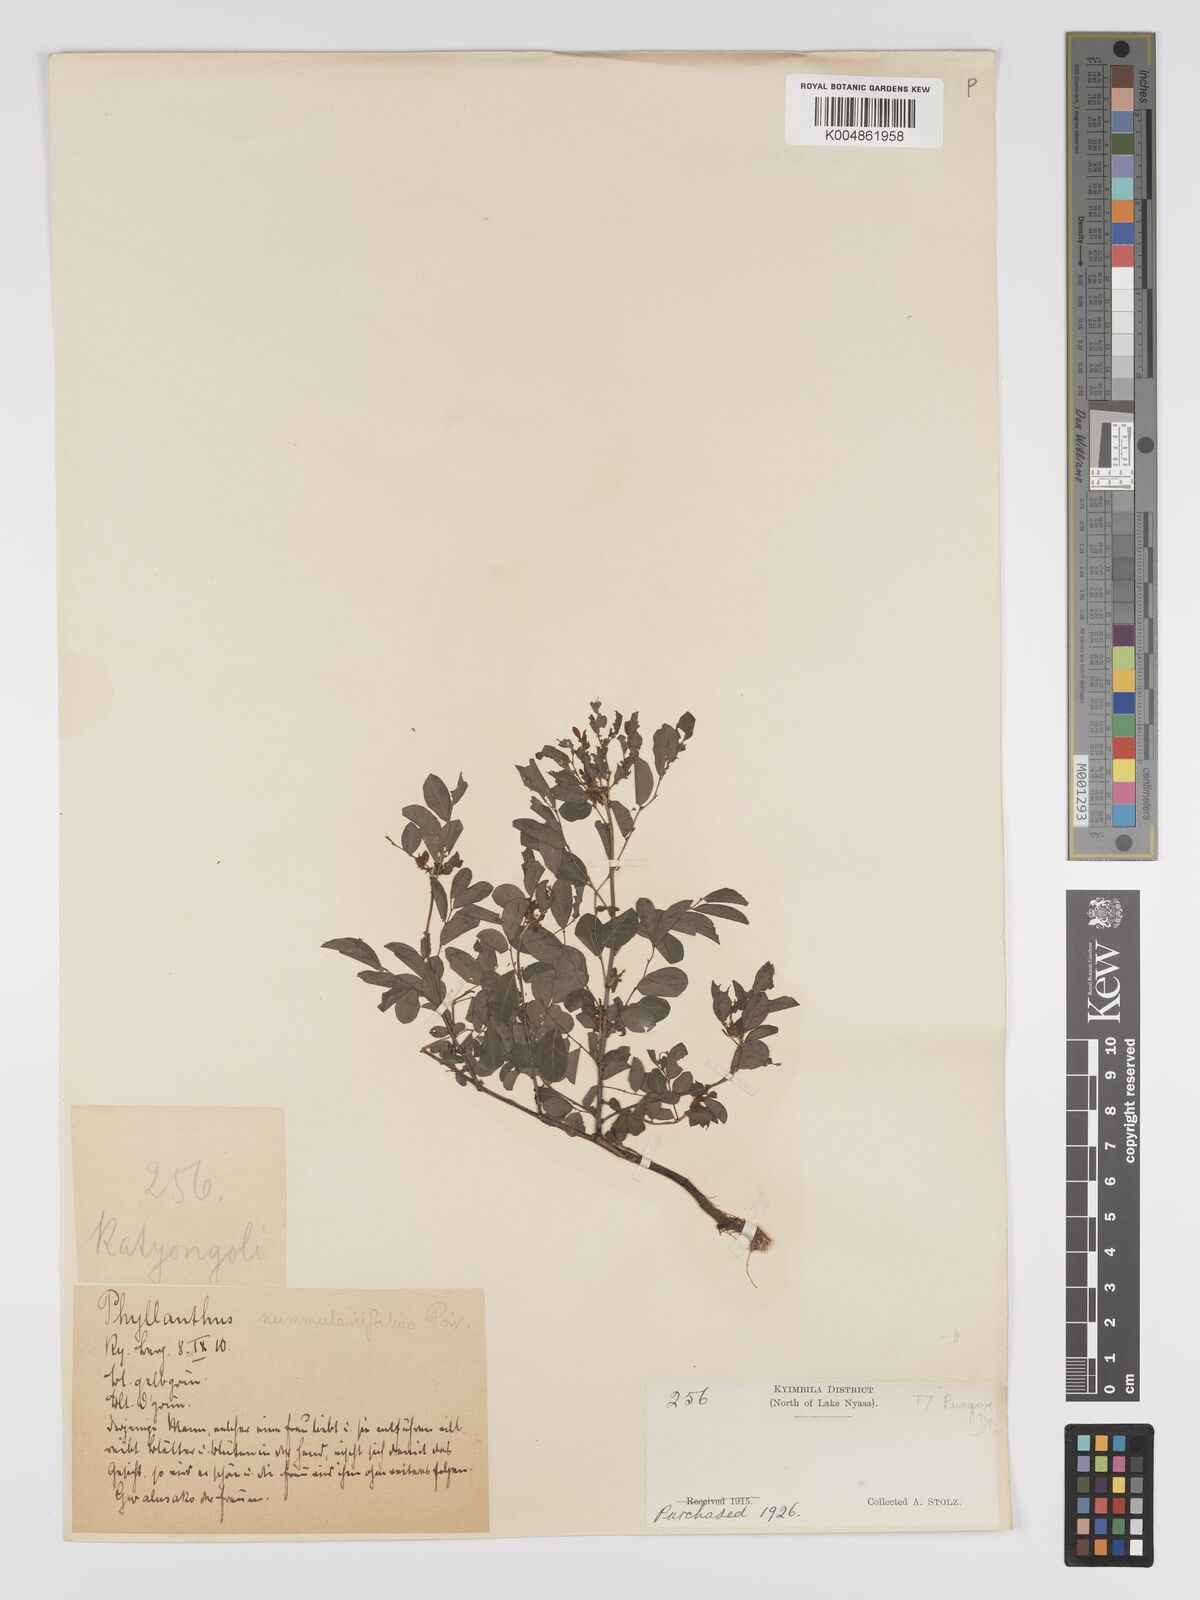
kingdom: Plantae
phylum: Tracheophyta
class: Magnoliopsida
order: Malpighiales
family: Phyllanthaceae
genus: Phyllanthus
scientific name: Phyllanthus nummulariifolius
